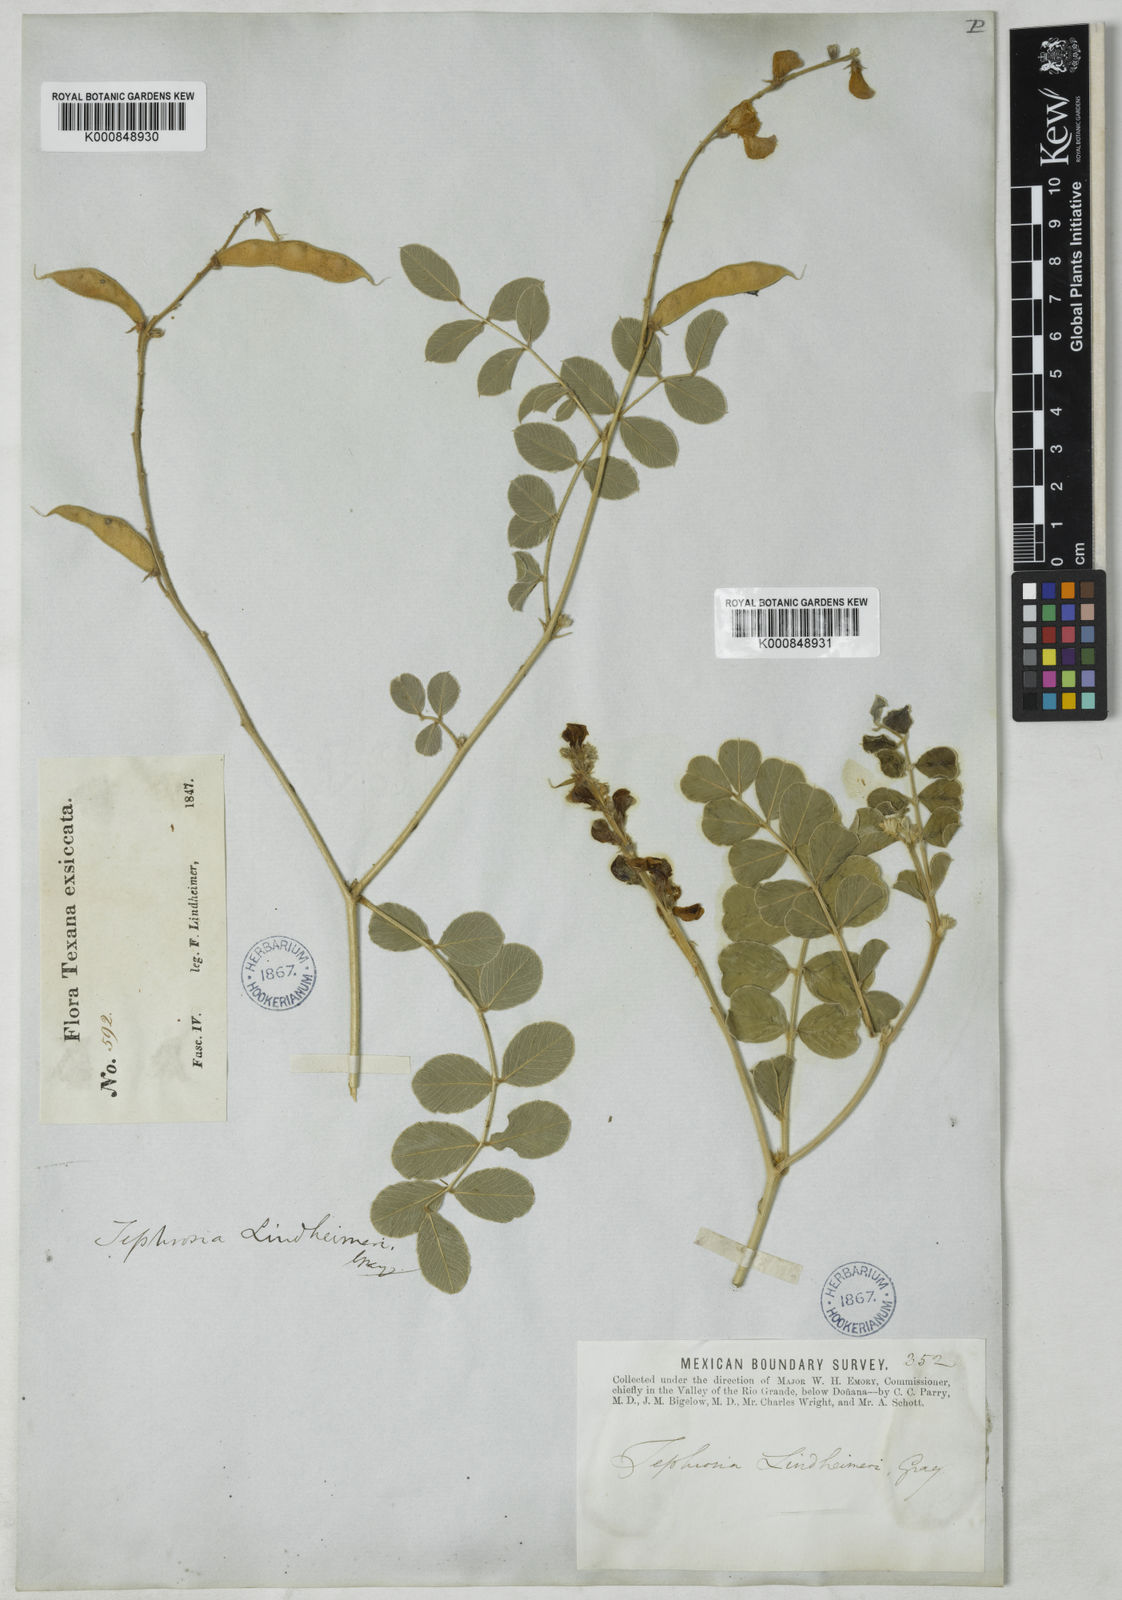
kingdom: Plantae
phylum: Tracheophyta
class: Magnoliopsida
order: Fabales
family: Fabaceae
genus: Tephrosia
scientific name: Tephrosia lindheimeri
